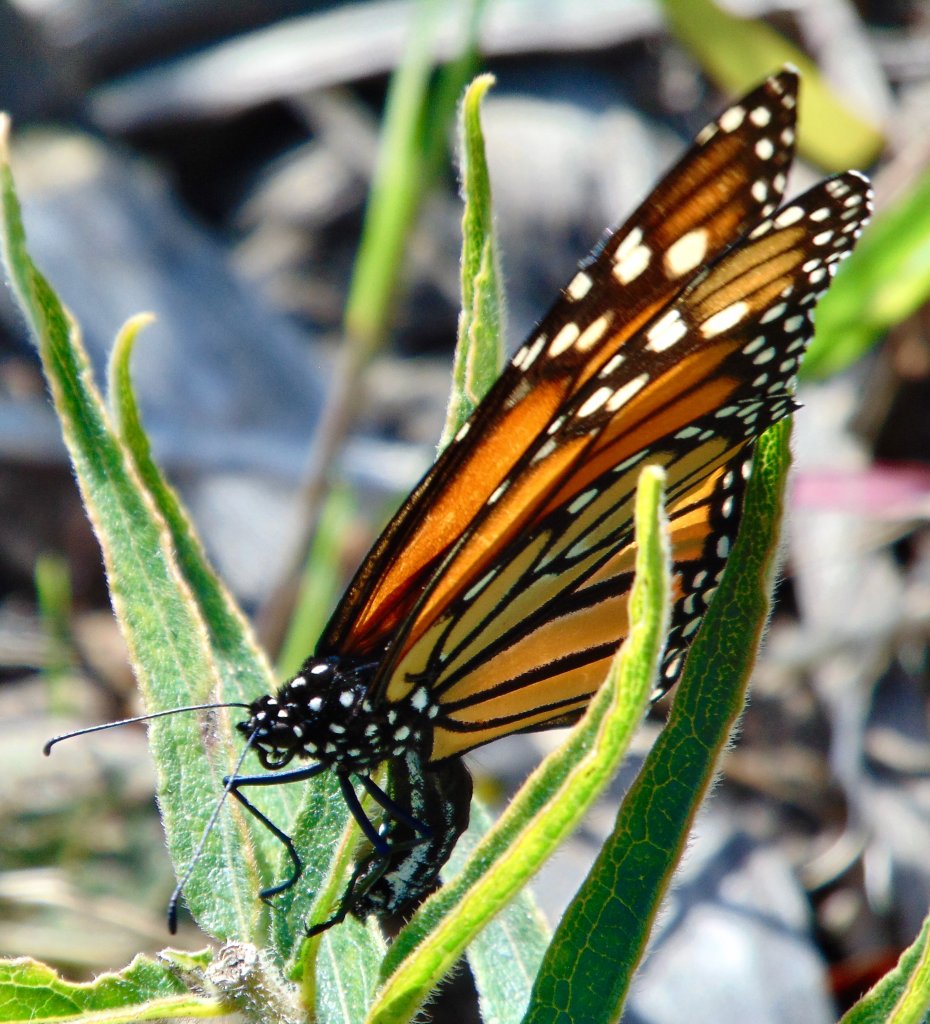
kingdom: Animalia
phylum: Arthropoda
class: Insecta
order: Lepidoptera
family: Nymphalidae
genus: Danaus
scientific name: Danaus plexippus
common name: Monarch
